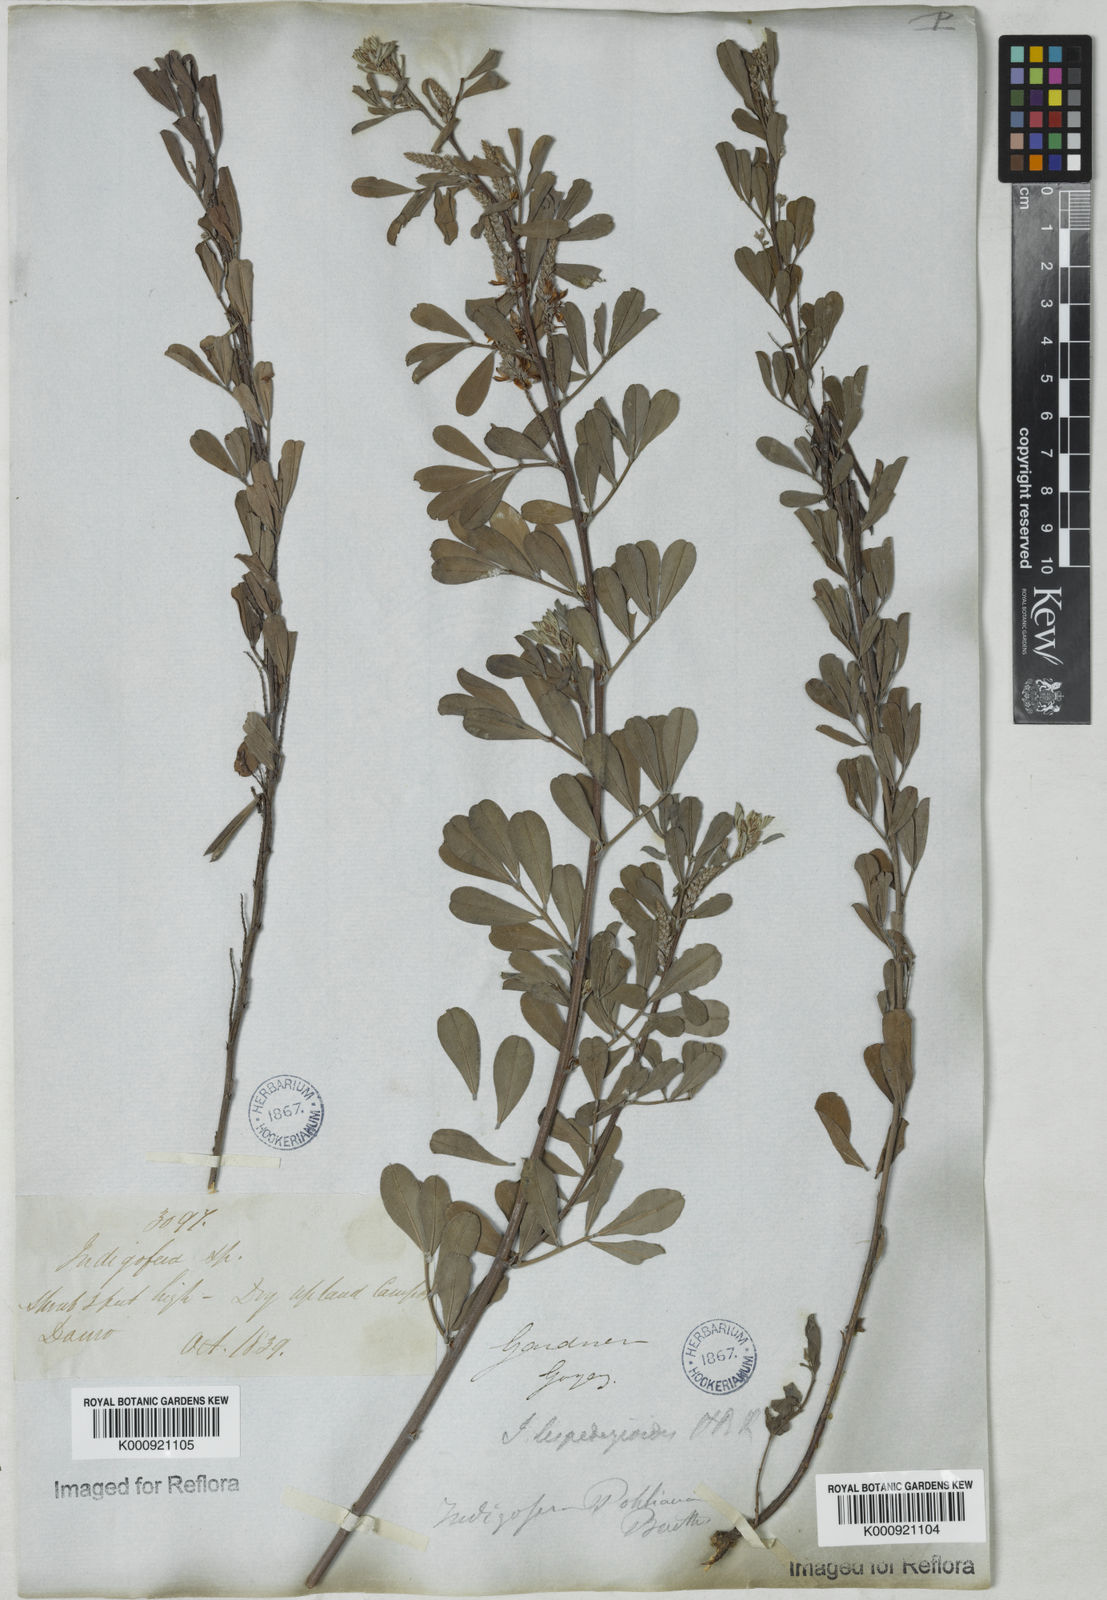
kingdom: Plantae
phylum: Tracheophyta
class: Magnoliopsida
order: Fabales
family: Fabaceae
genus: Indigofera
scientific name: Indigofera lespedezioides
